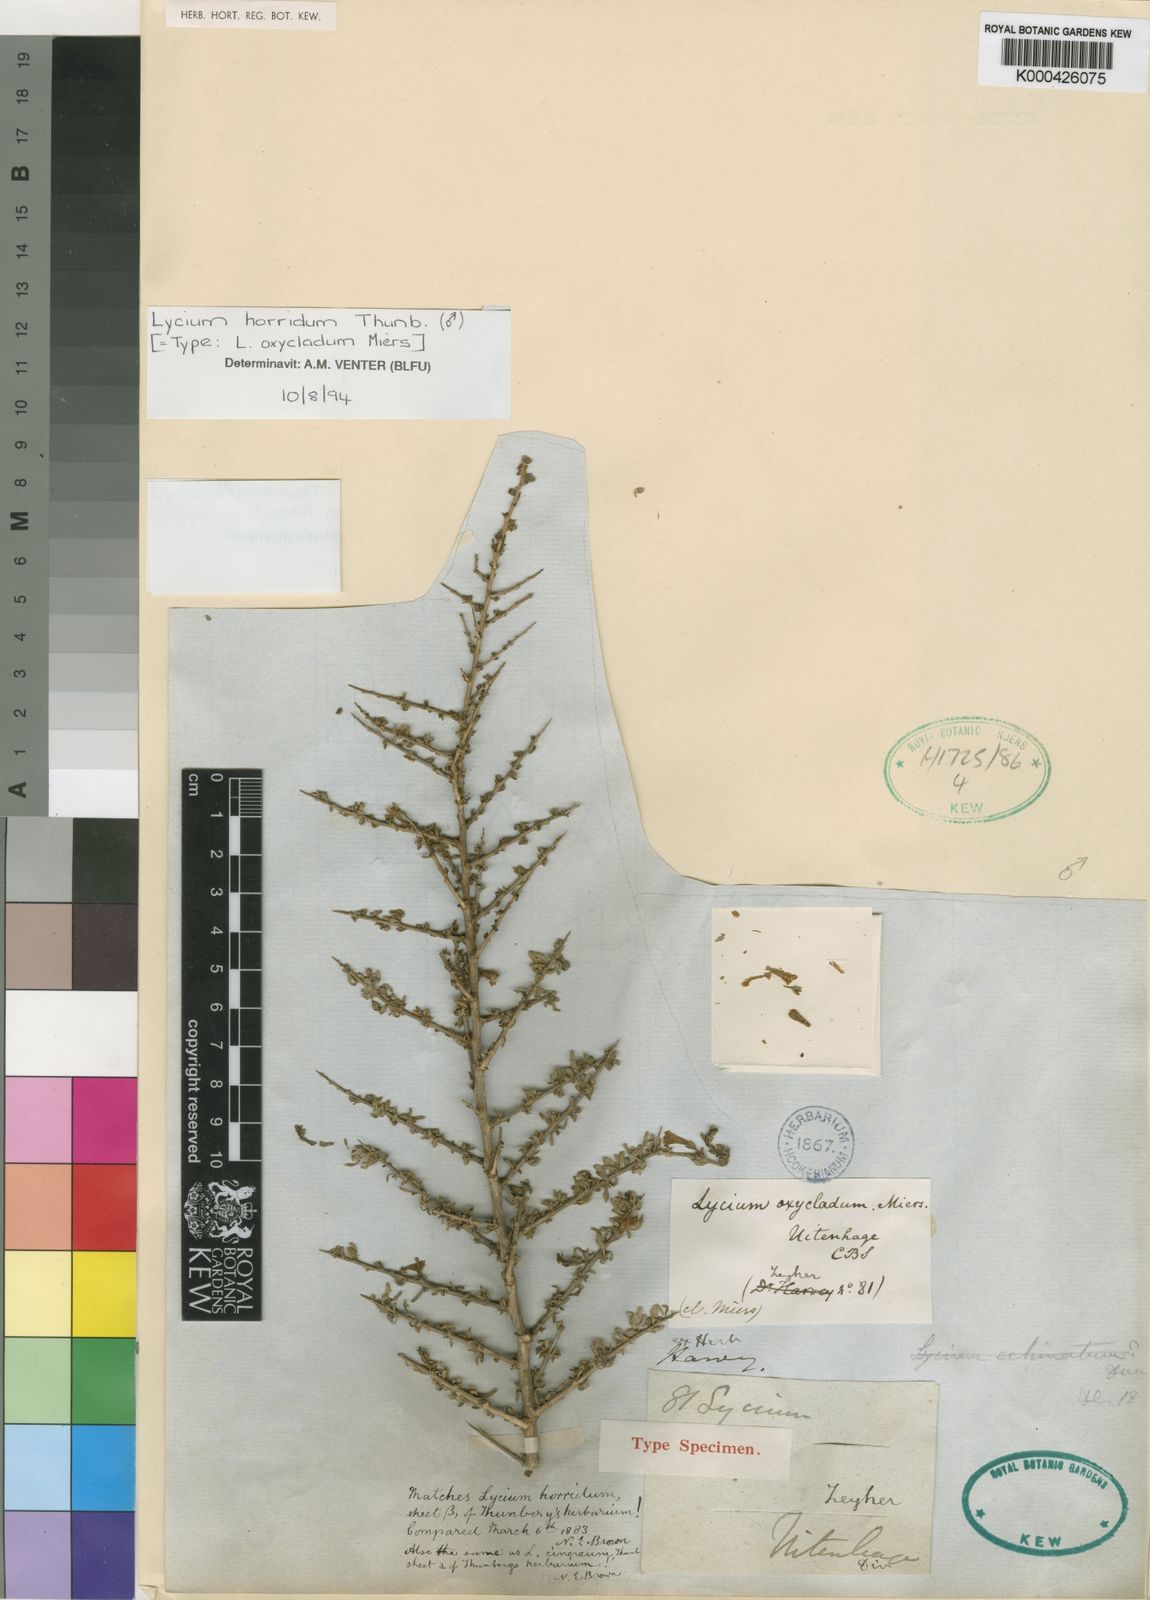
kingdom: Plantae
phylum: Tracheophyta
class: Magnoliopsida
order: Solanales
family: Solanaceae
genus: Lycium
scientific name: Lycium horridum
